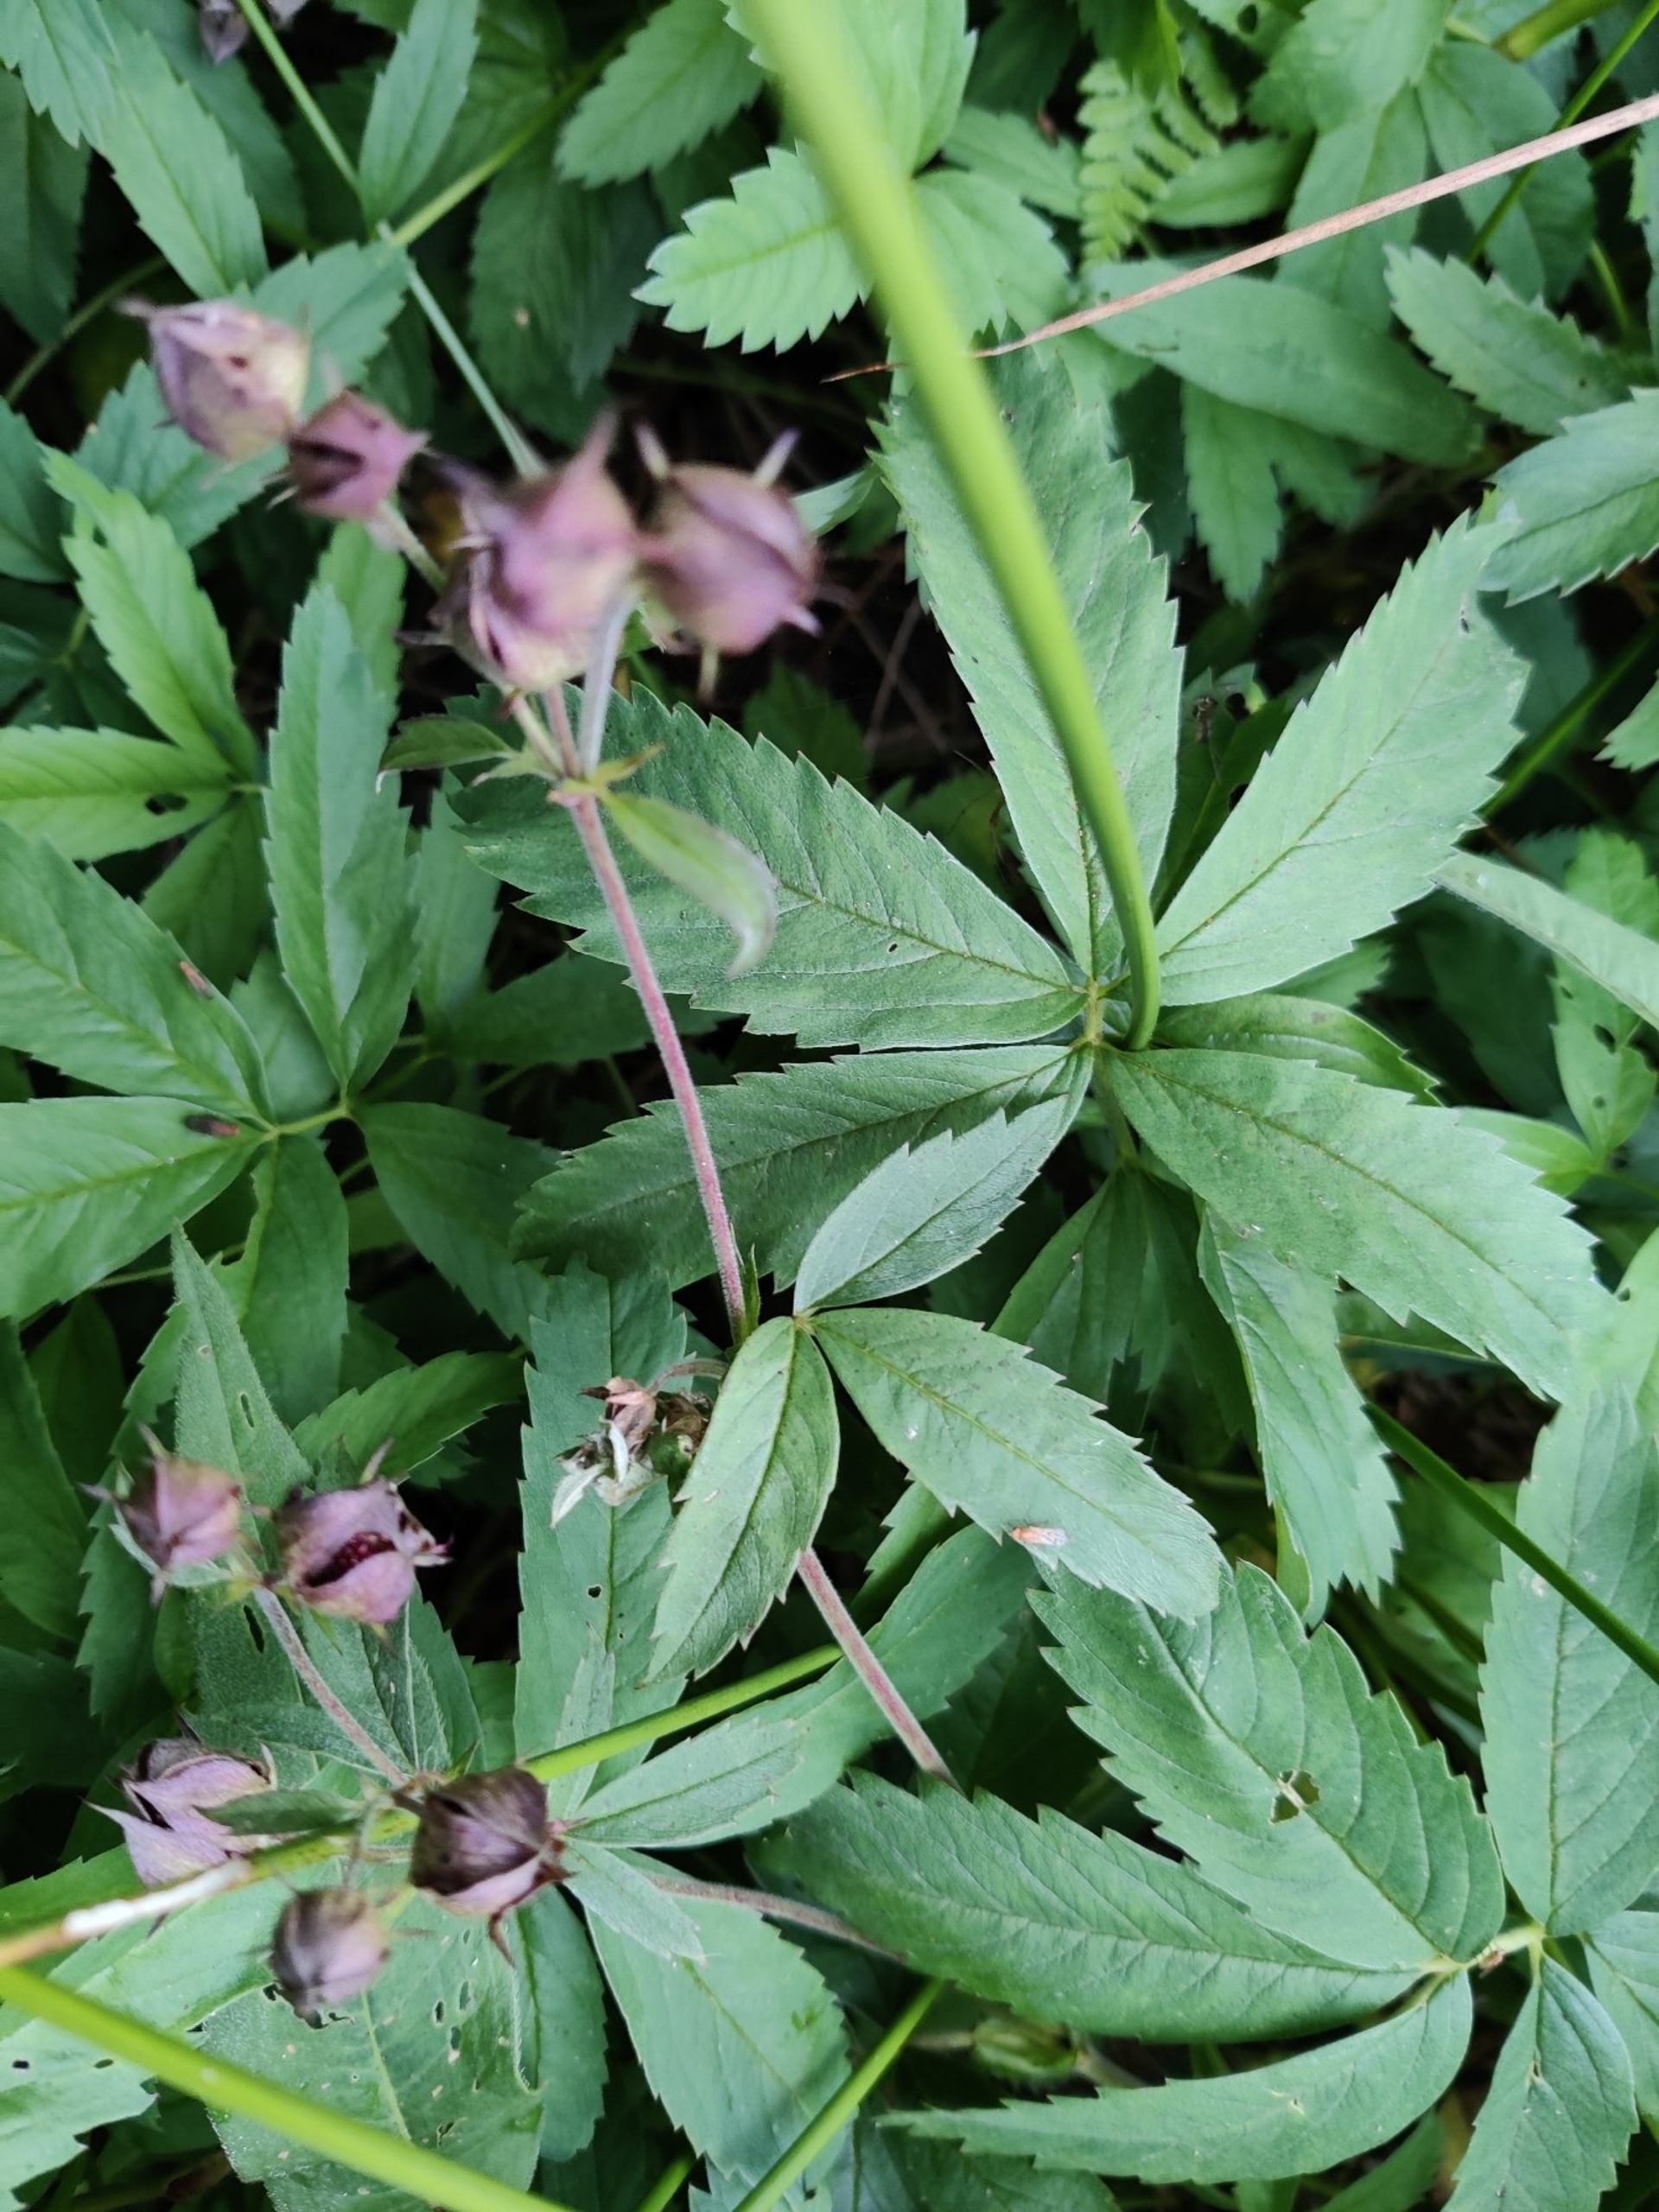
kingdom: Plantae
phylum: Tracheophyta
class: Magnoliopsida
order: Rosales
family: Rosaceae
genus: Comarum
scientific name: Comarum palustre
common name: Kragefod
